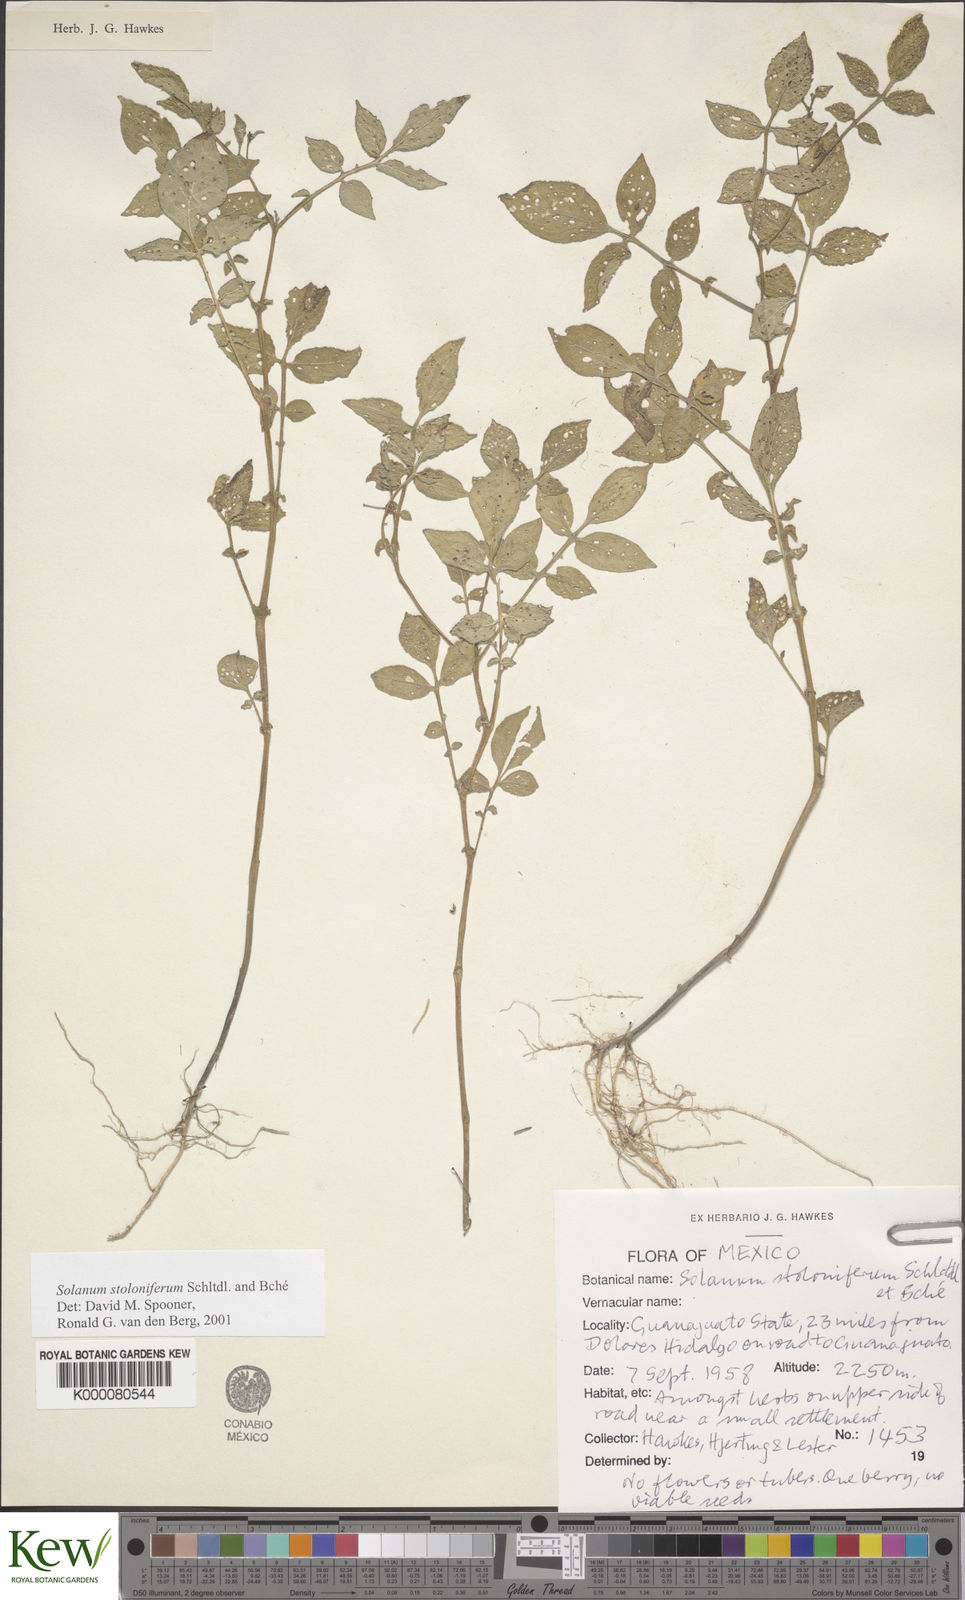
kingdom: Plantae
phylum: Tracheophyta
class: Magnoliopsida
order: Solanales
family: Solanaceae
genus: Solanum
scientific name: Solanum stoloniferum
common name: Fendler's nighshade
